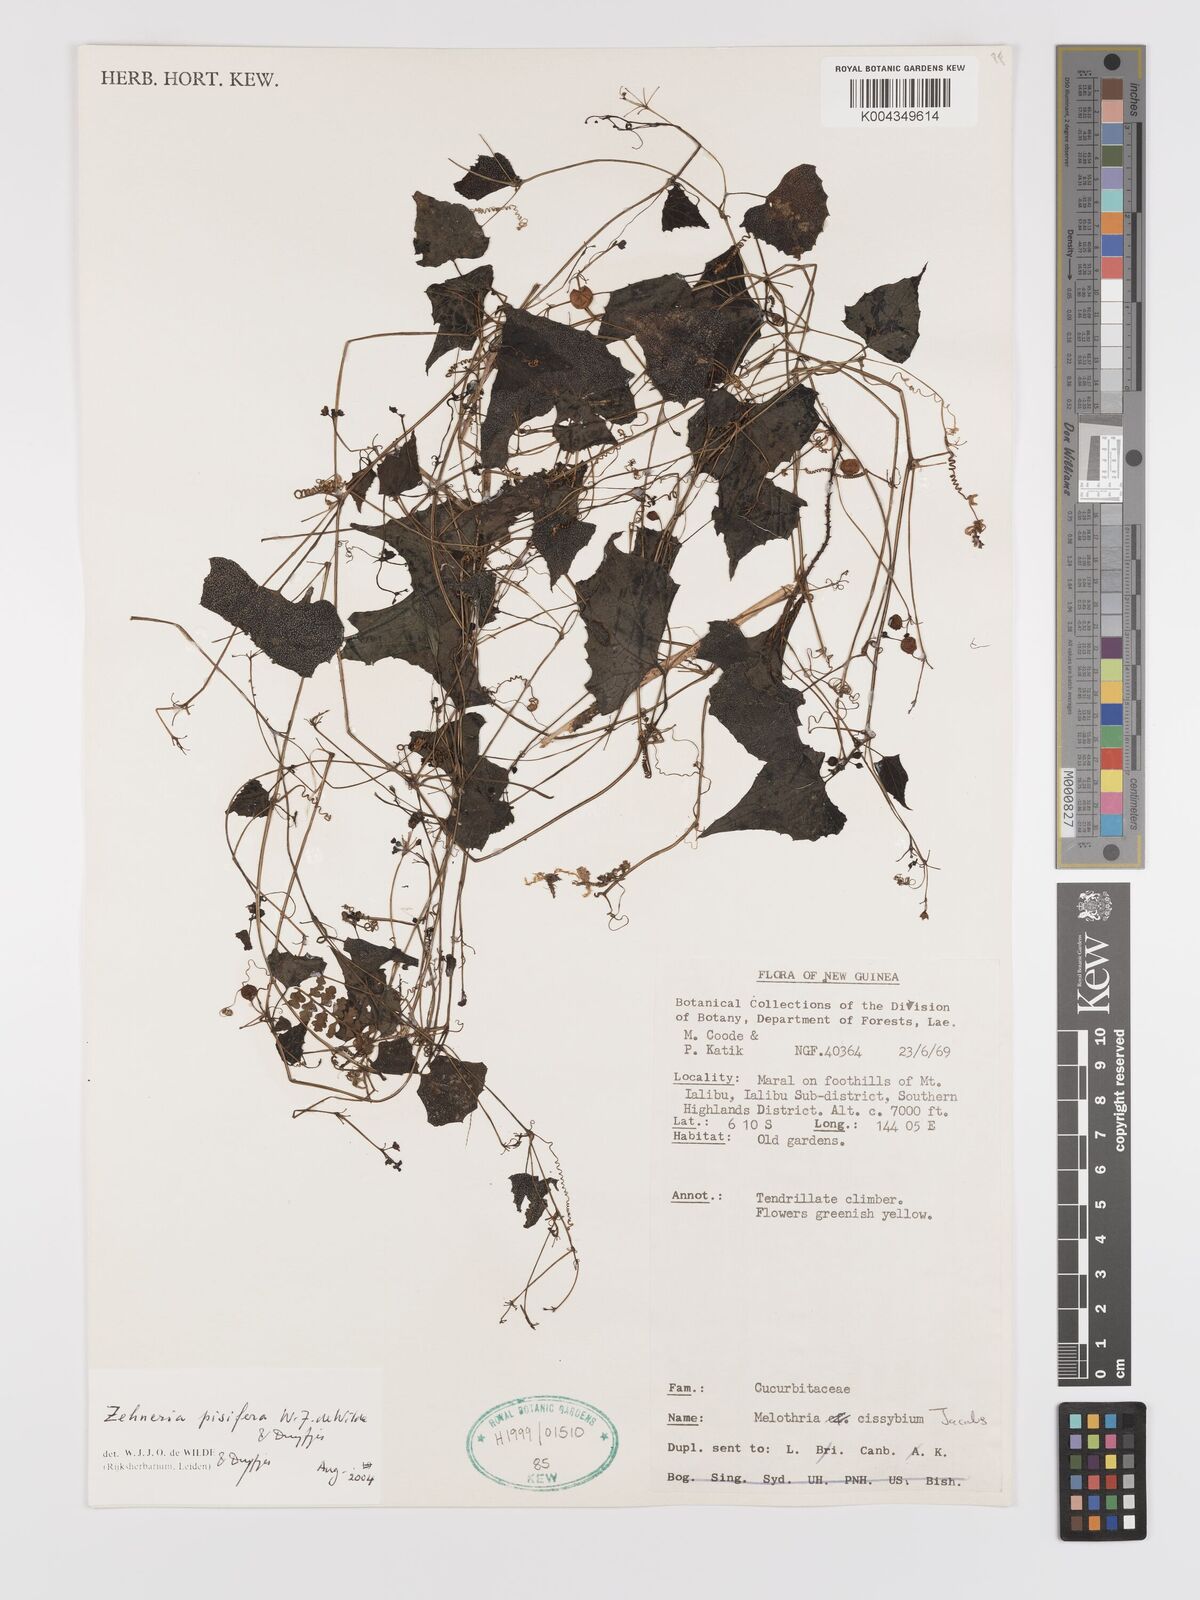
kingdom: Plantae
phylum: Tracheophyta
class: Magnoliopsida
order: Cucurbitales
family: Cucurbitaceae
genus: Zehneria
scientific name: Zehneria pisifera
